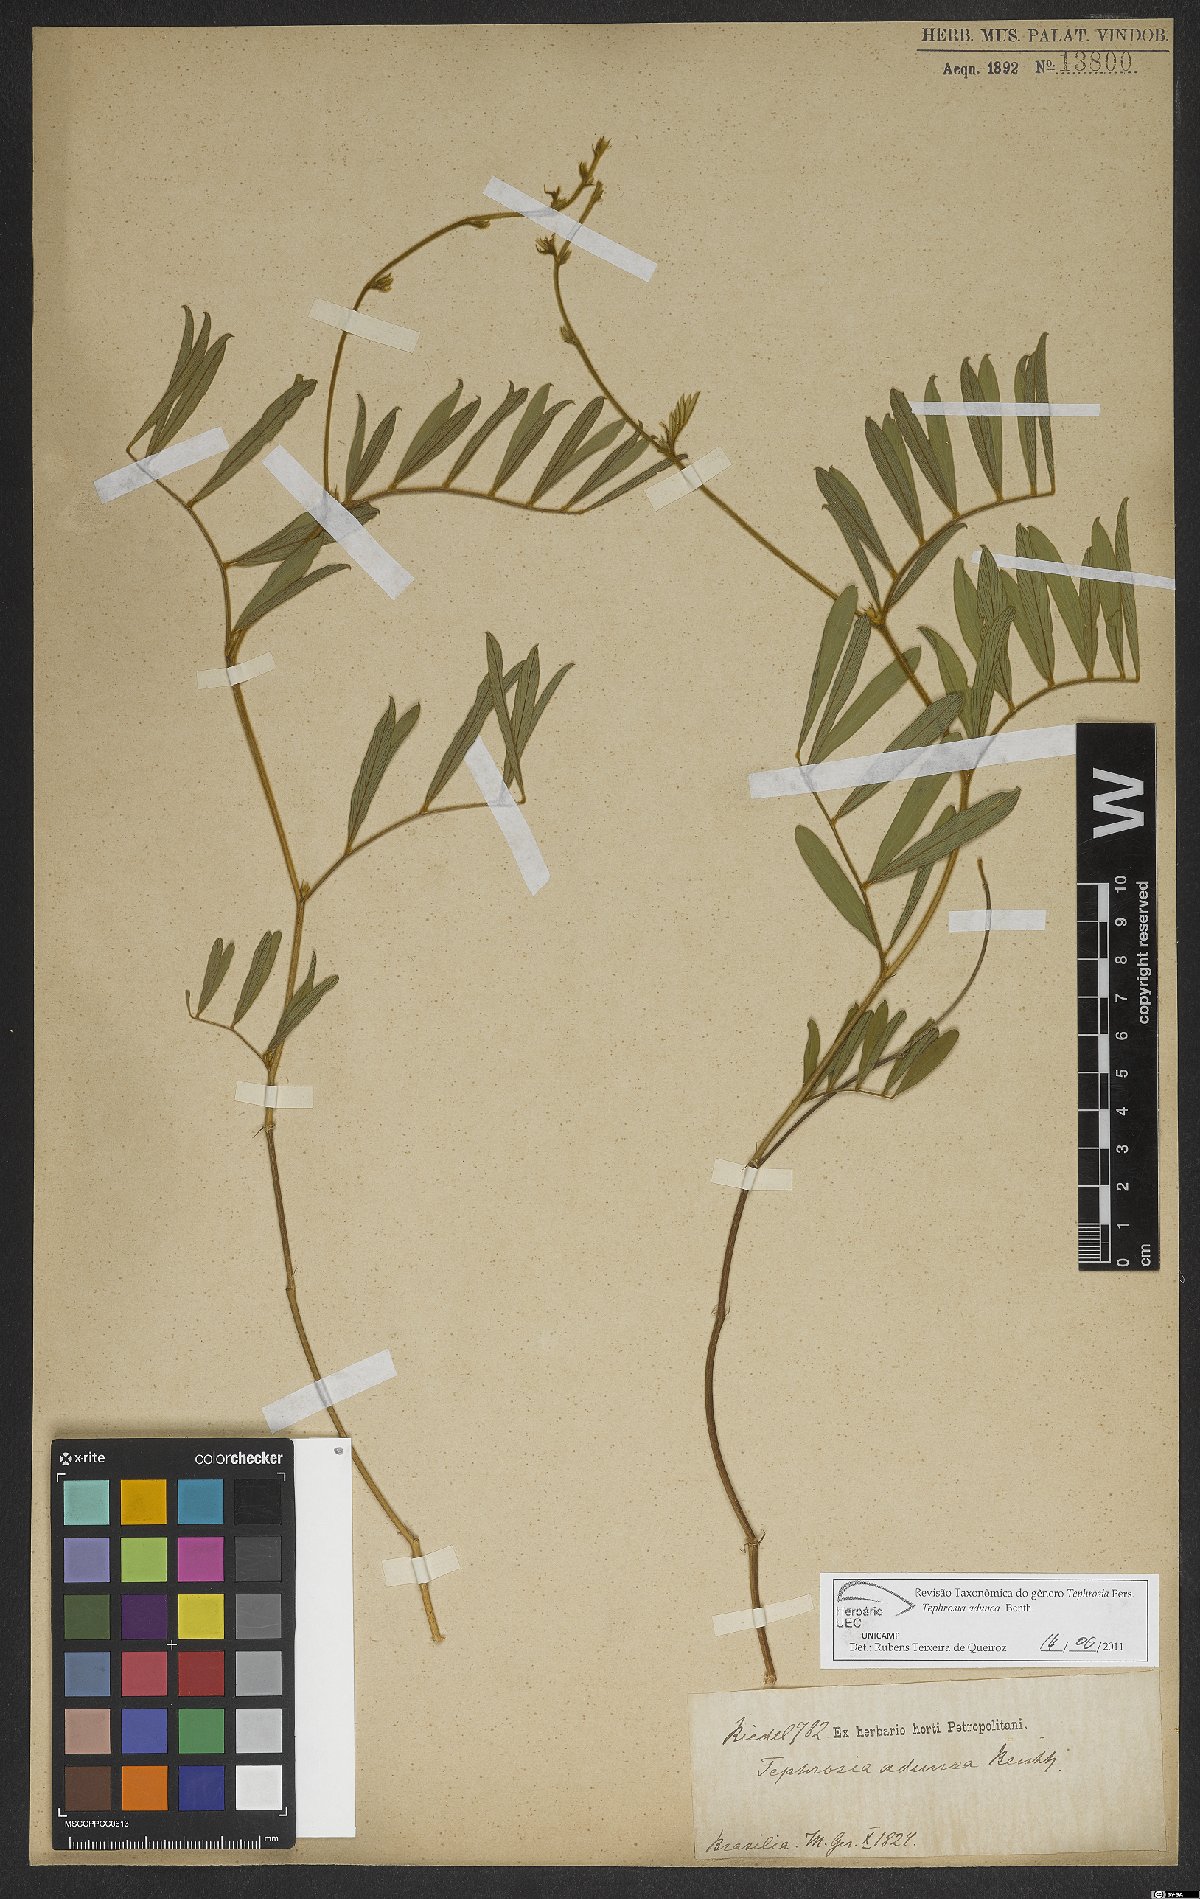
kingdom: Plantae
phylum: Tracheophyta
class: Magnoliopsida
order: Fabales
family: Fabaceae
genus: Tephrosia
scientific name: Tephrosia adunca
